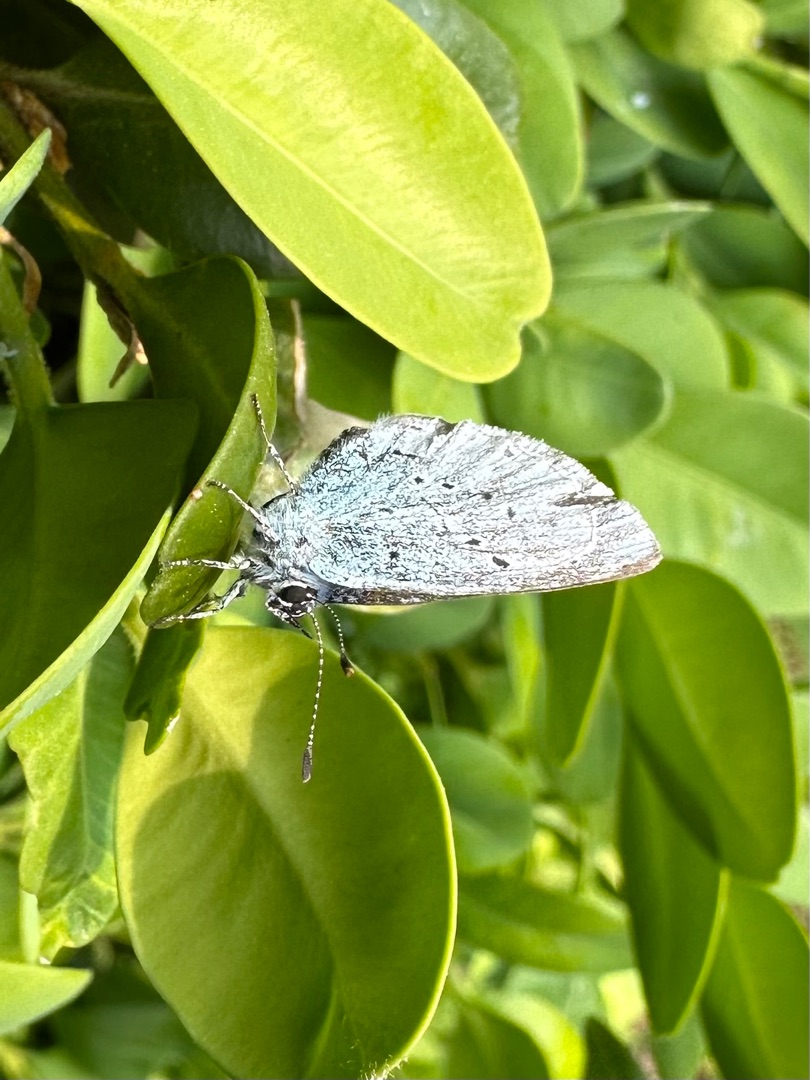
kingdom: Animalia
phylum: Arthropoda
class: Insecta
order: Lepidoptera
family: Lycaenidae
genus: Celastrina
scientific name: Celastrina argiolus
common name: Skovblåfugl
